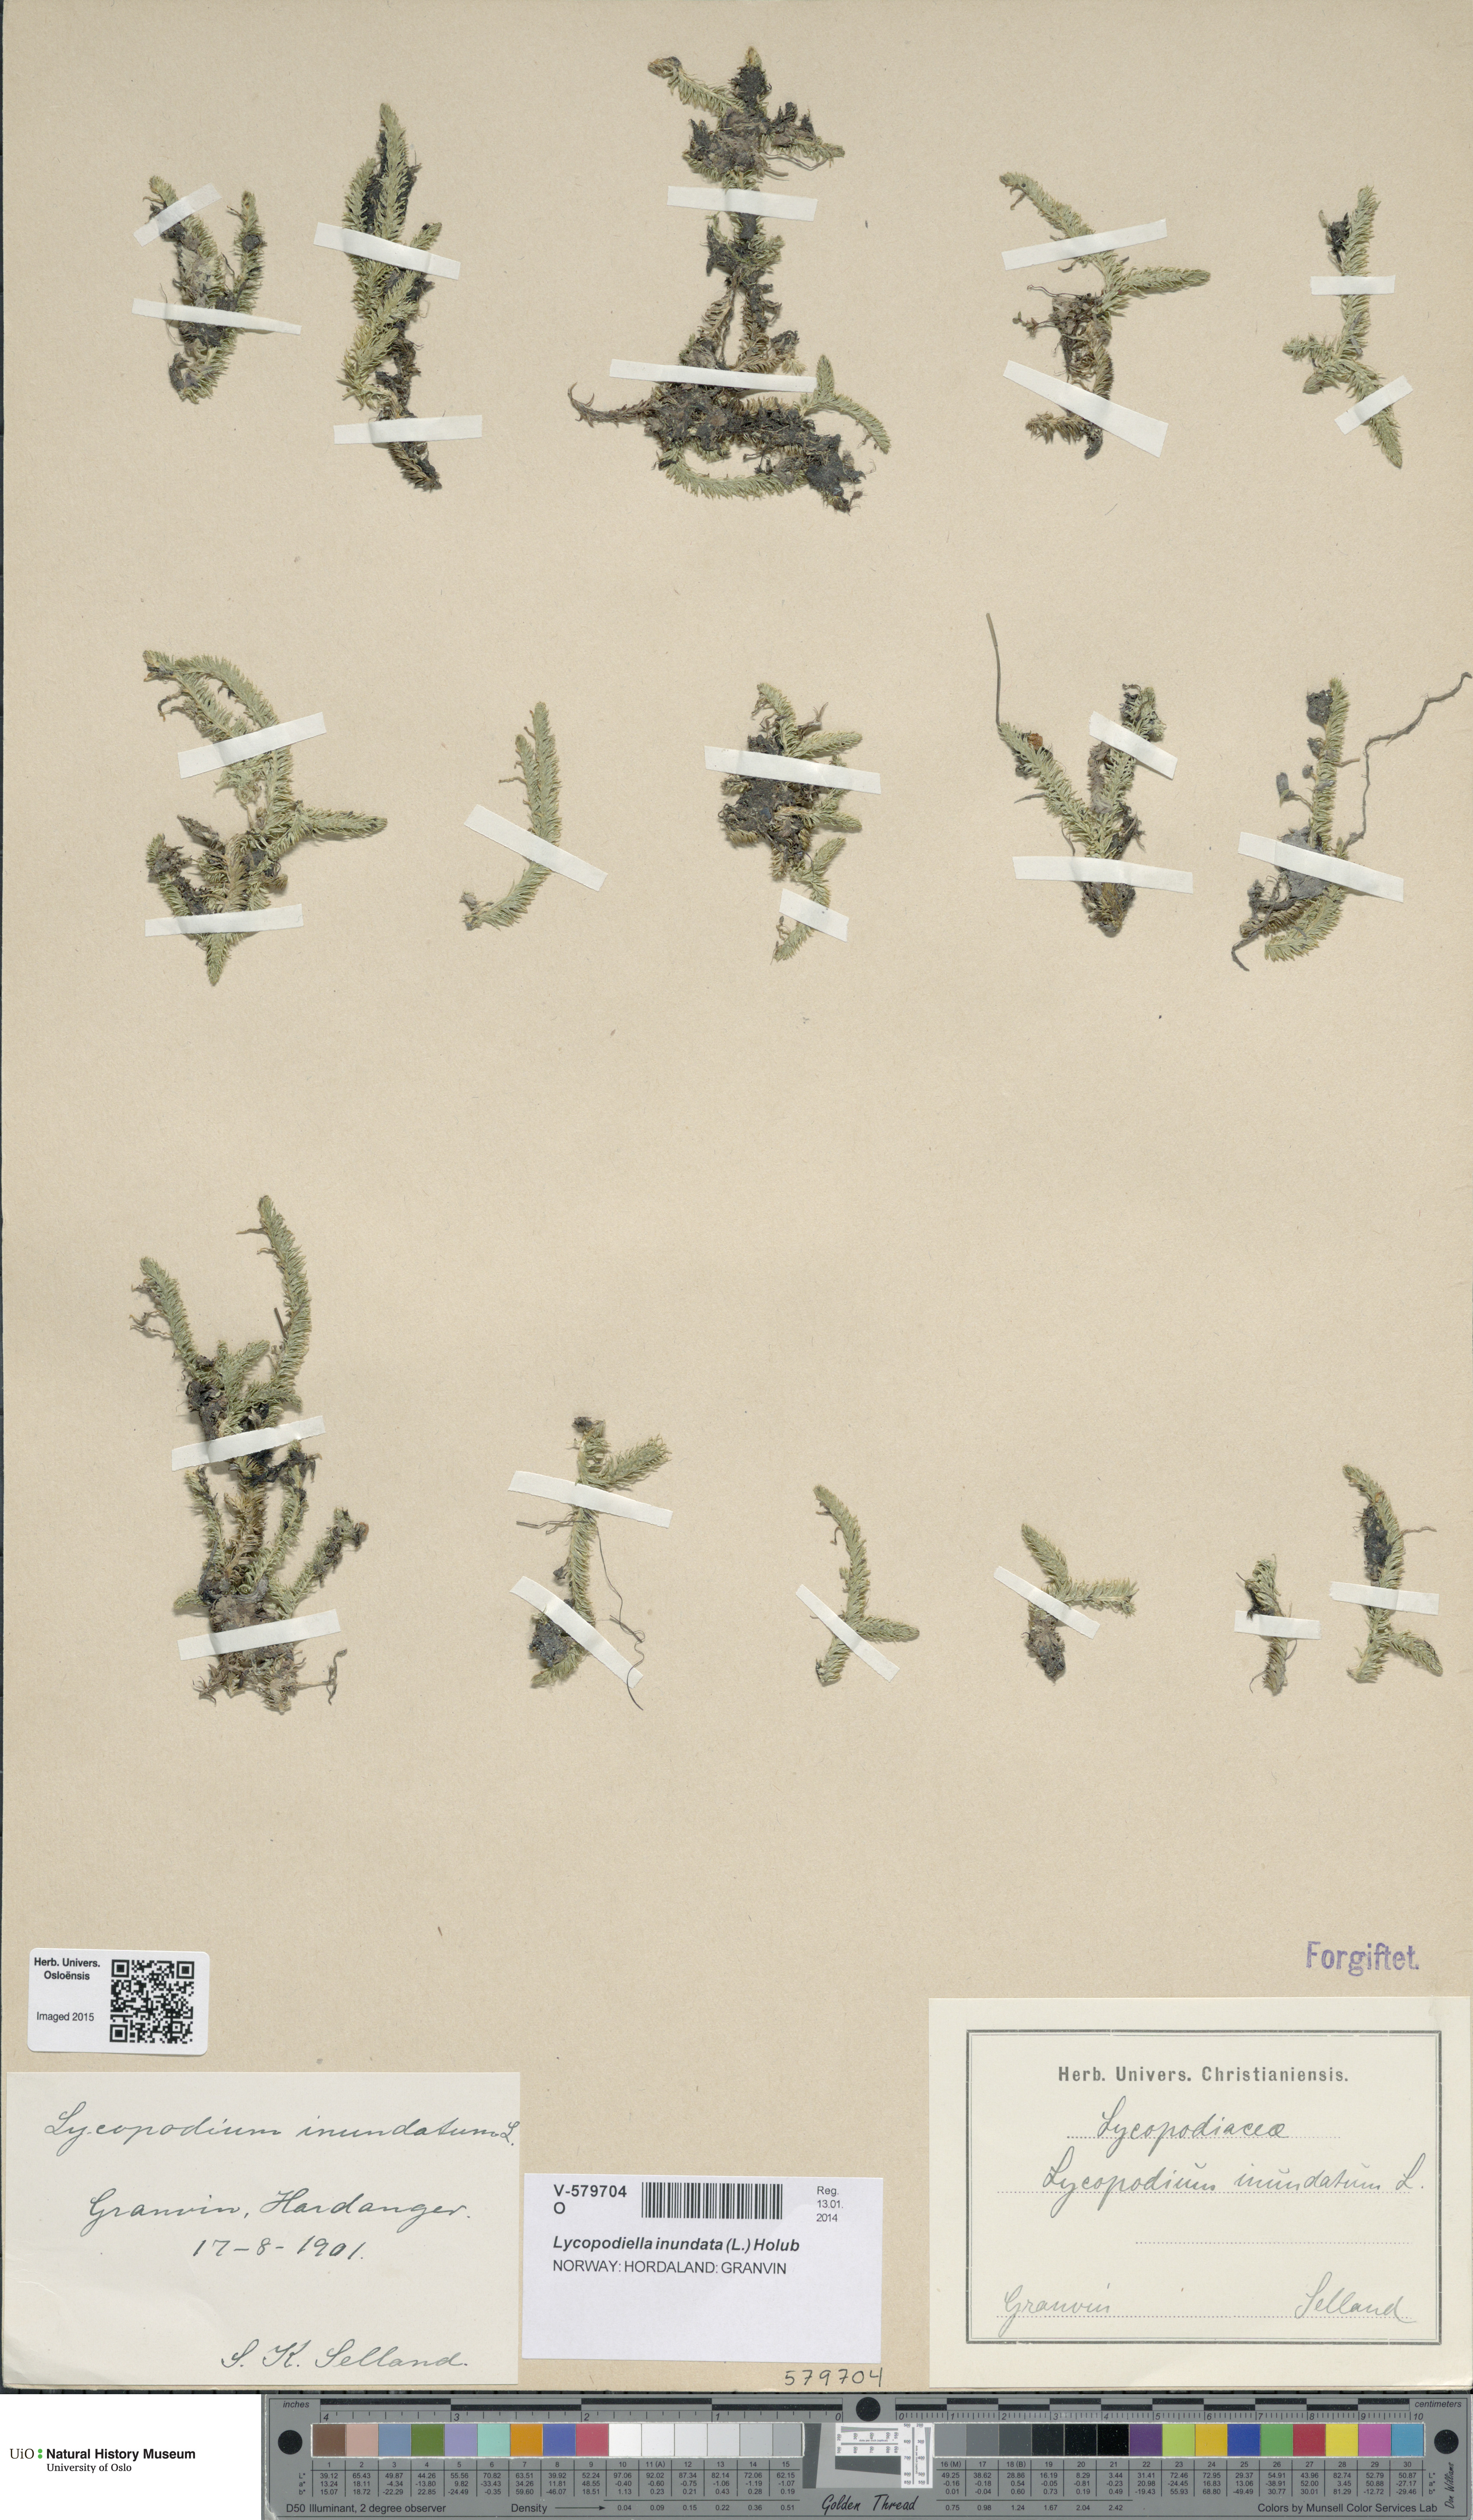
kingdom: Plantae
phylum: Tracheophyta
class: Lycopodiopsida
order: Lycopodiales
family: Lycopodiaceae
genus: Lycopodiella
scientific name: Lycopodiella inundata
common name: Marsh clubmoss
